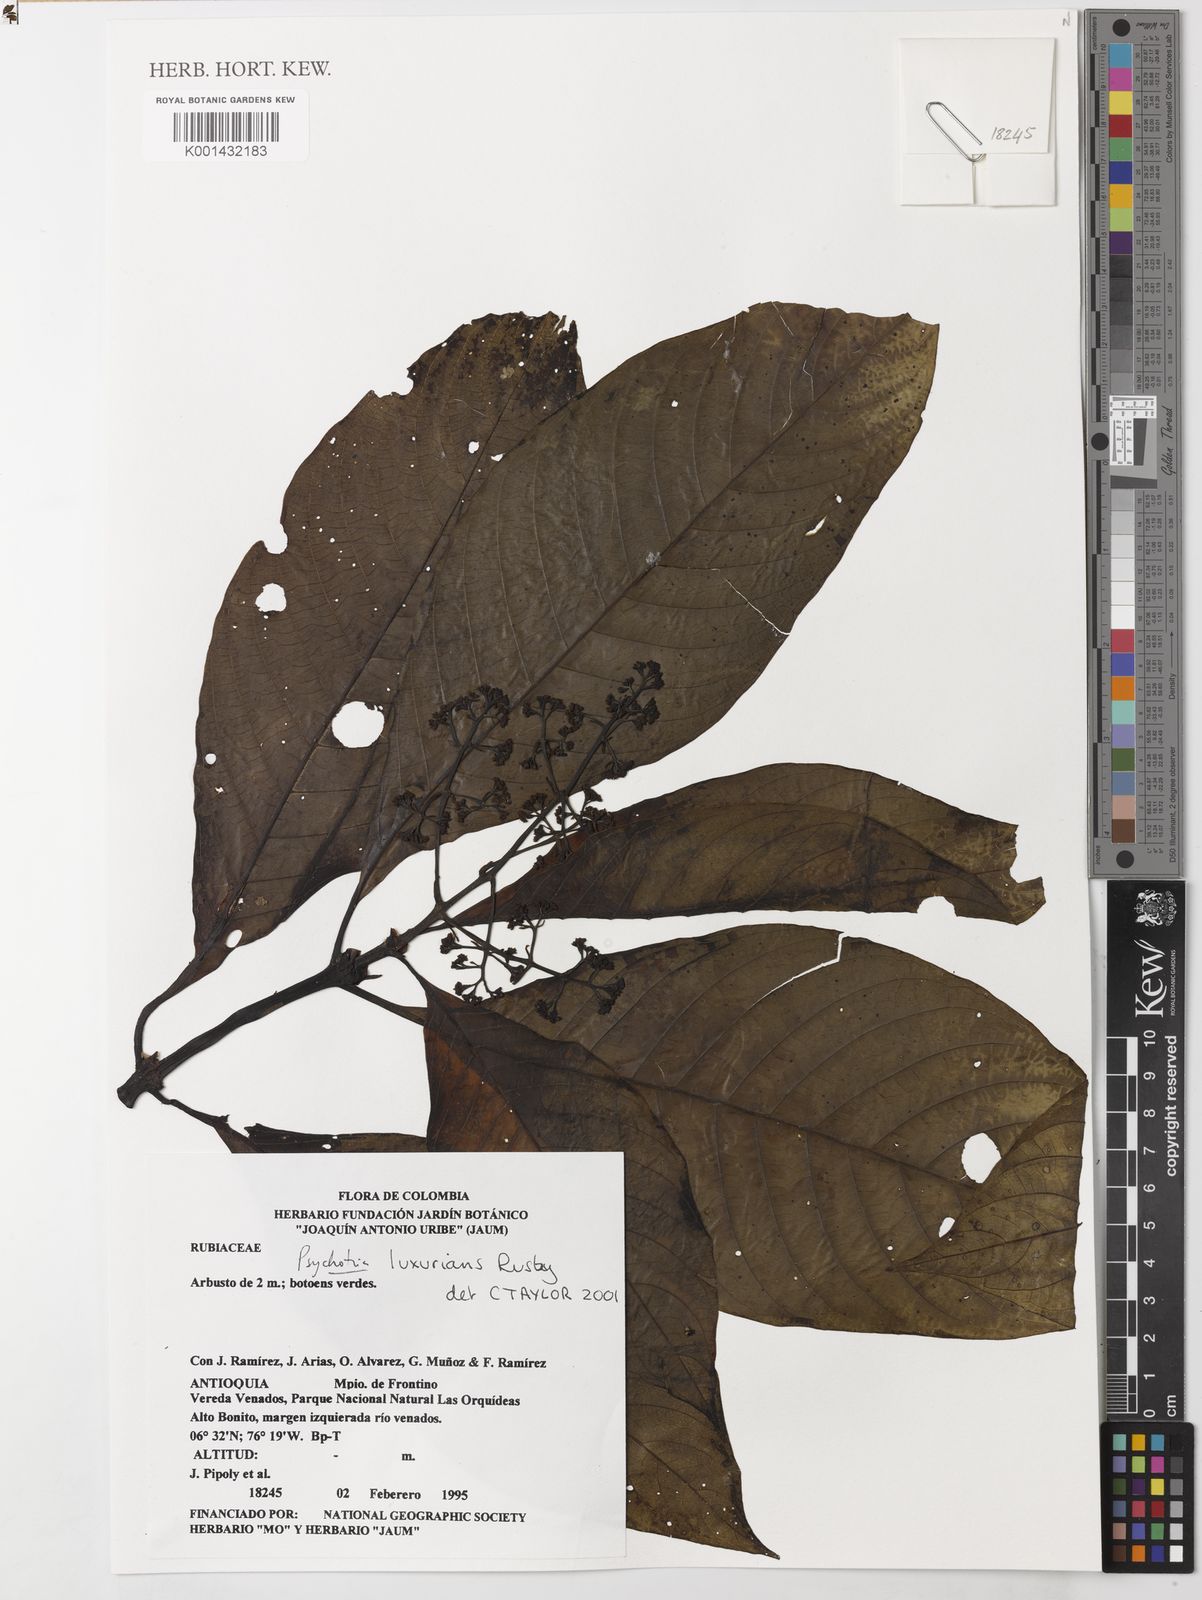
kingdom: Plantae
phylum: Tracheophyta
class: Magnoliopsida
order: Gentianales
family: Rubiaceae
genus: Palicourea
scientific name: Palicourea luxurians
